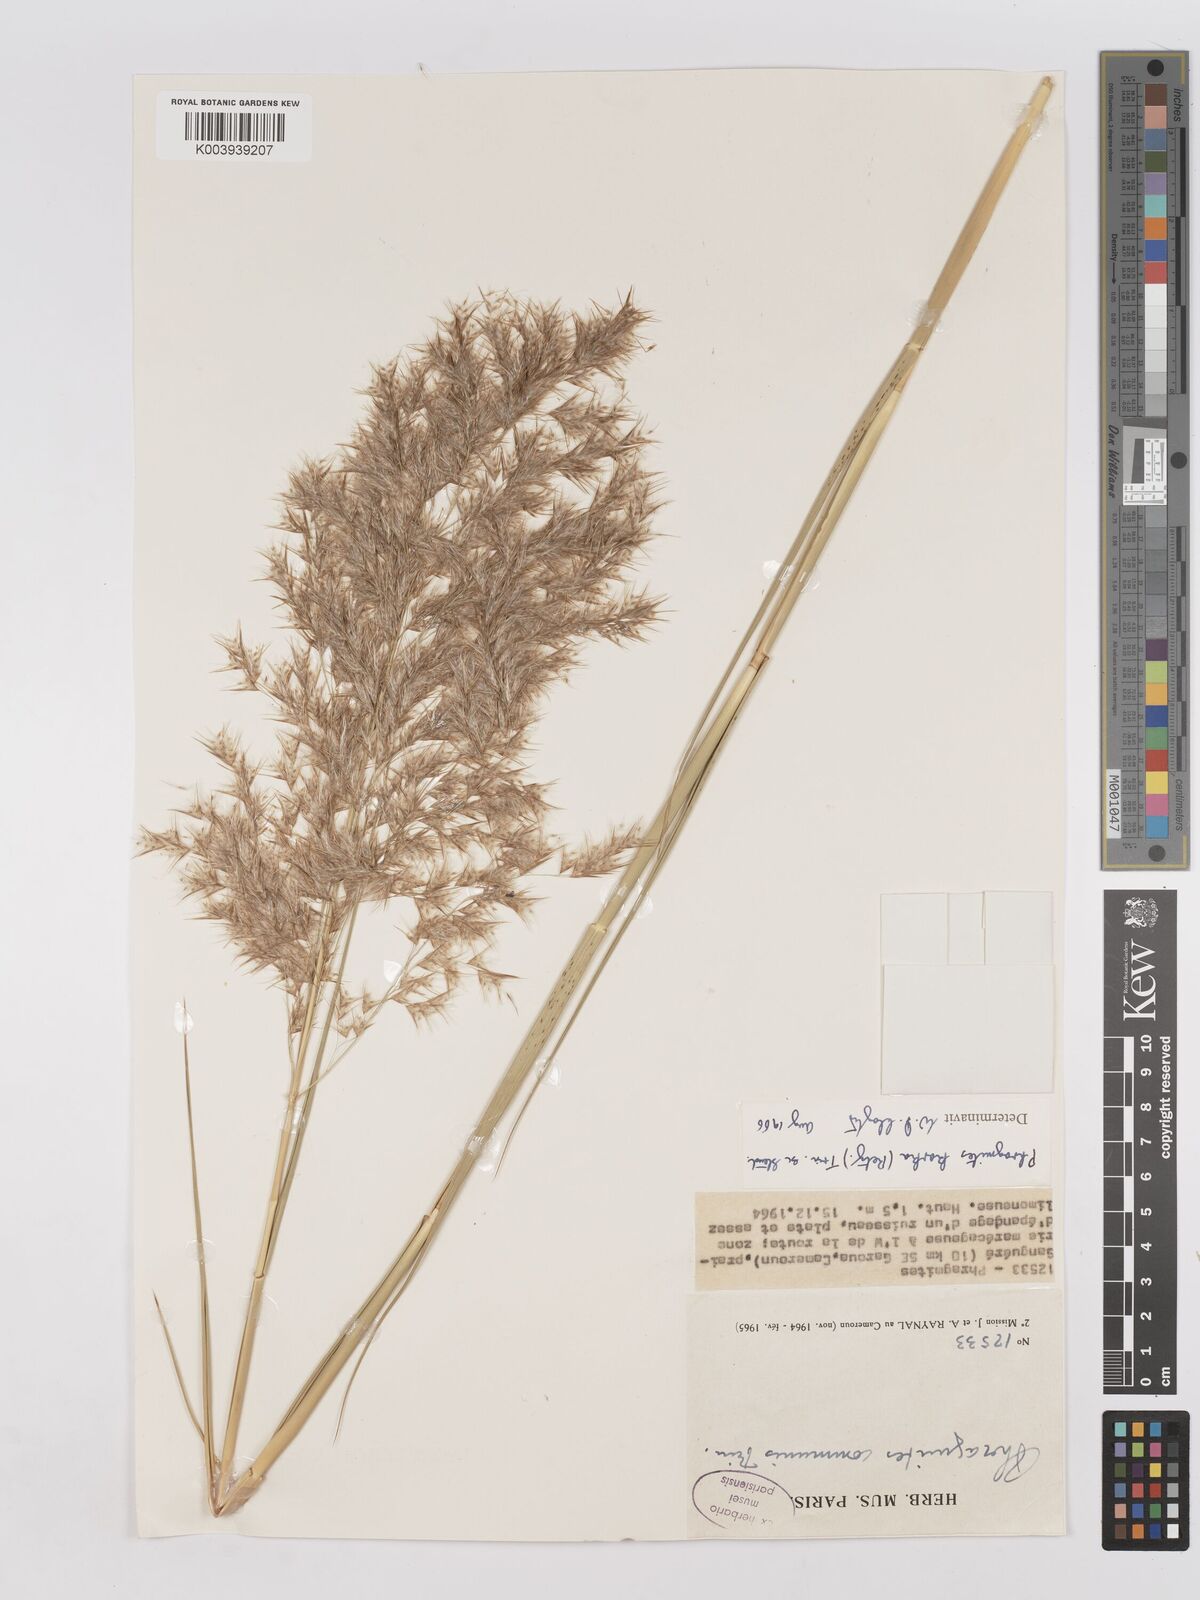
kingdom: Plantae
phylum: Tracheophyta
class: Liliopsida
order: Poales
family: Poaceae
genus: Phragmites
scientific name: Phragmites karka
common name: Tropical reed
